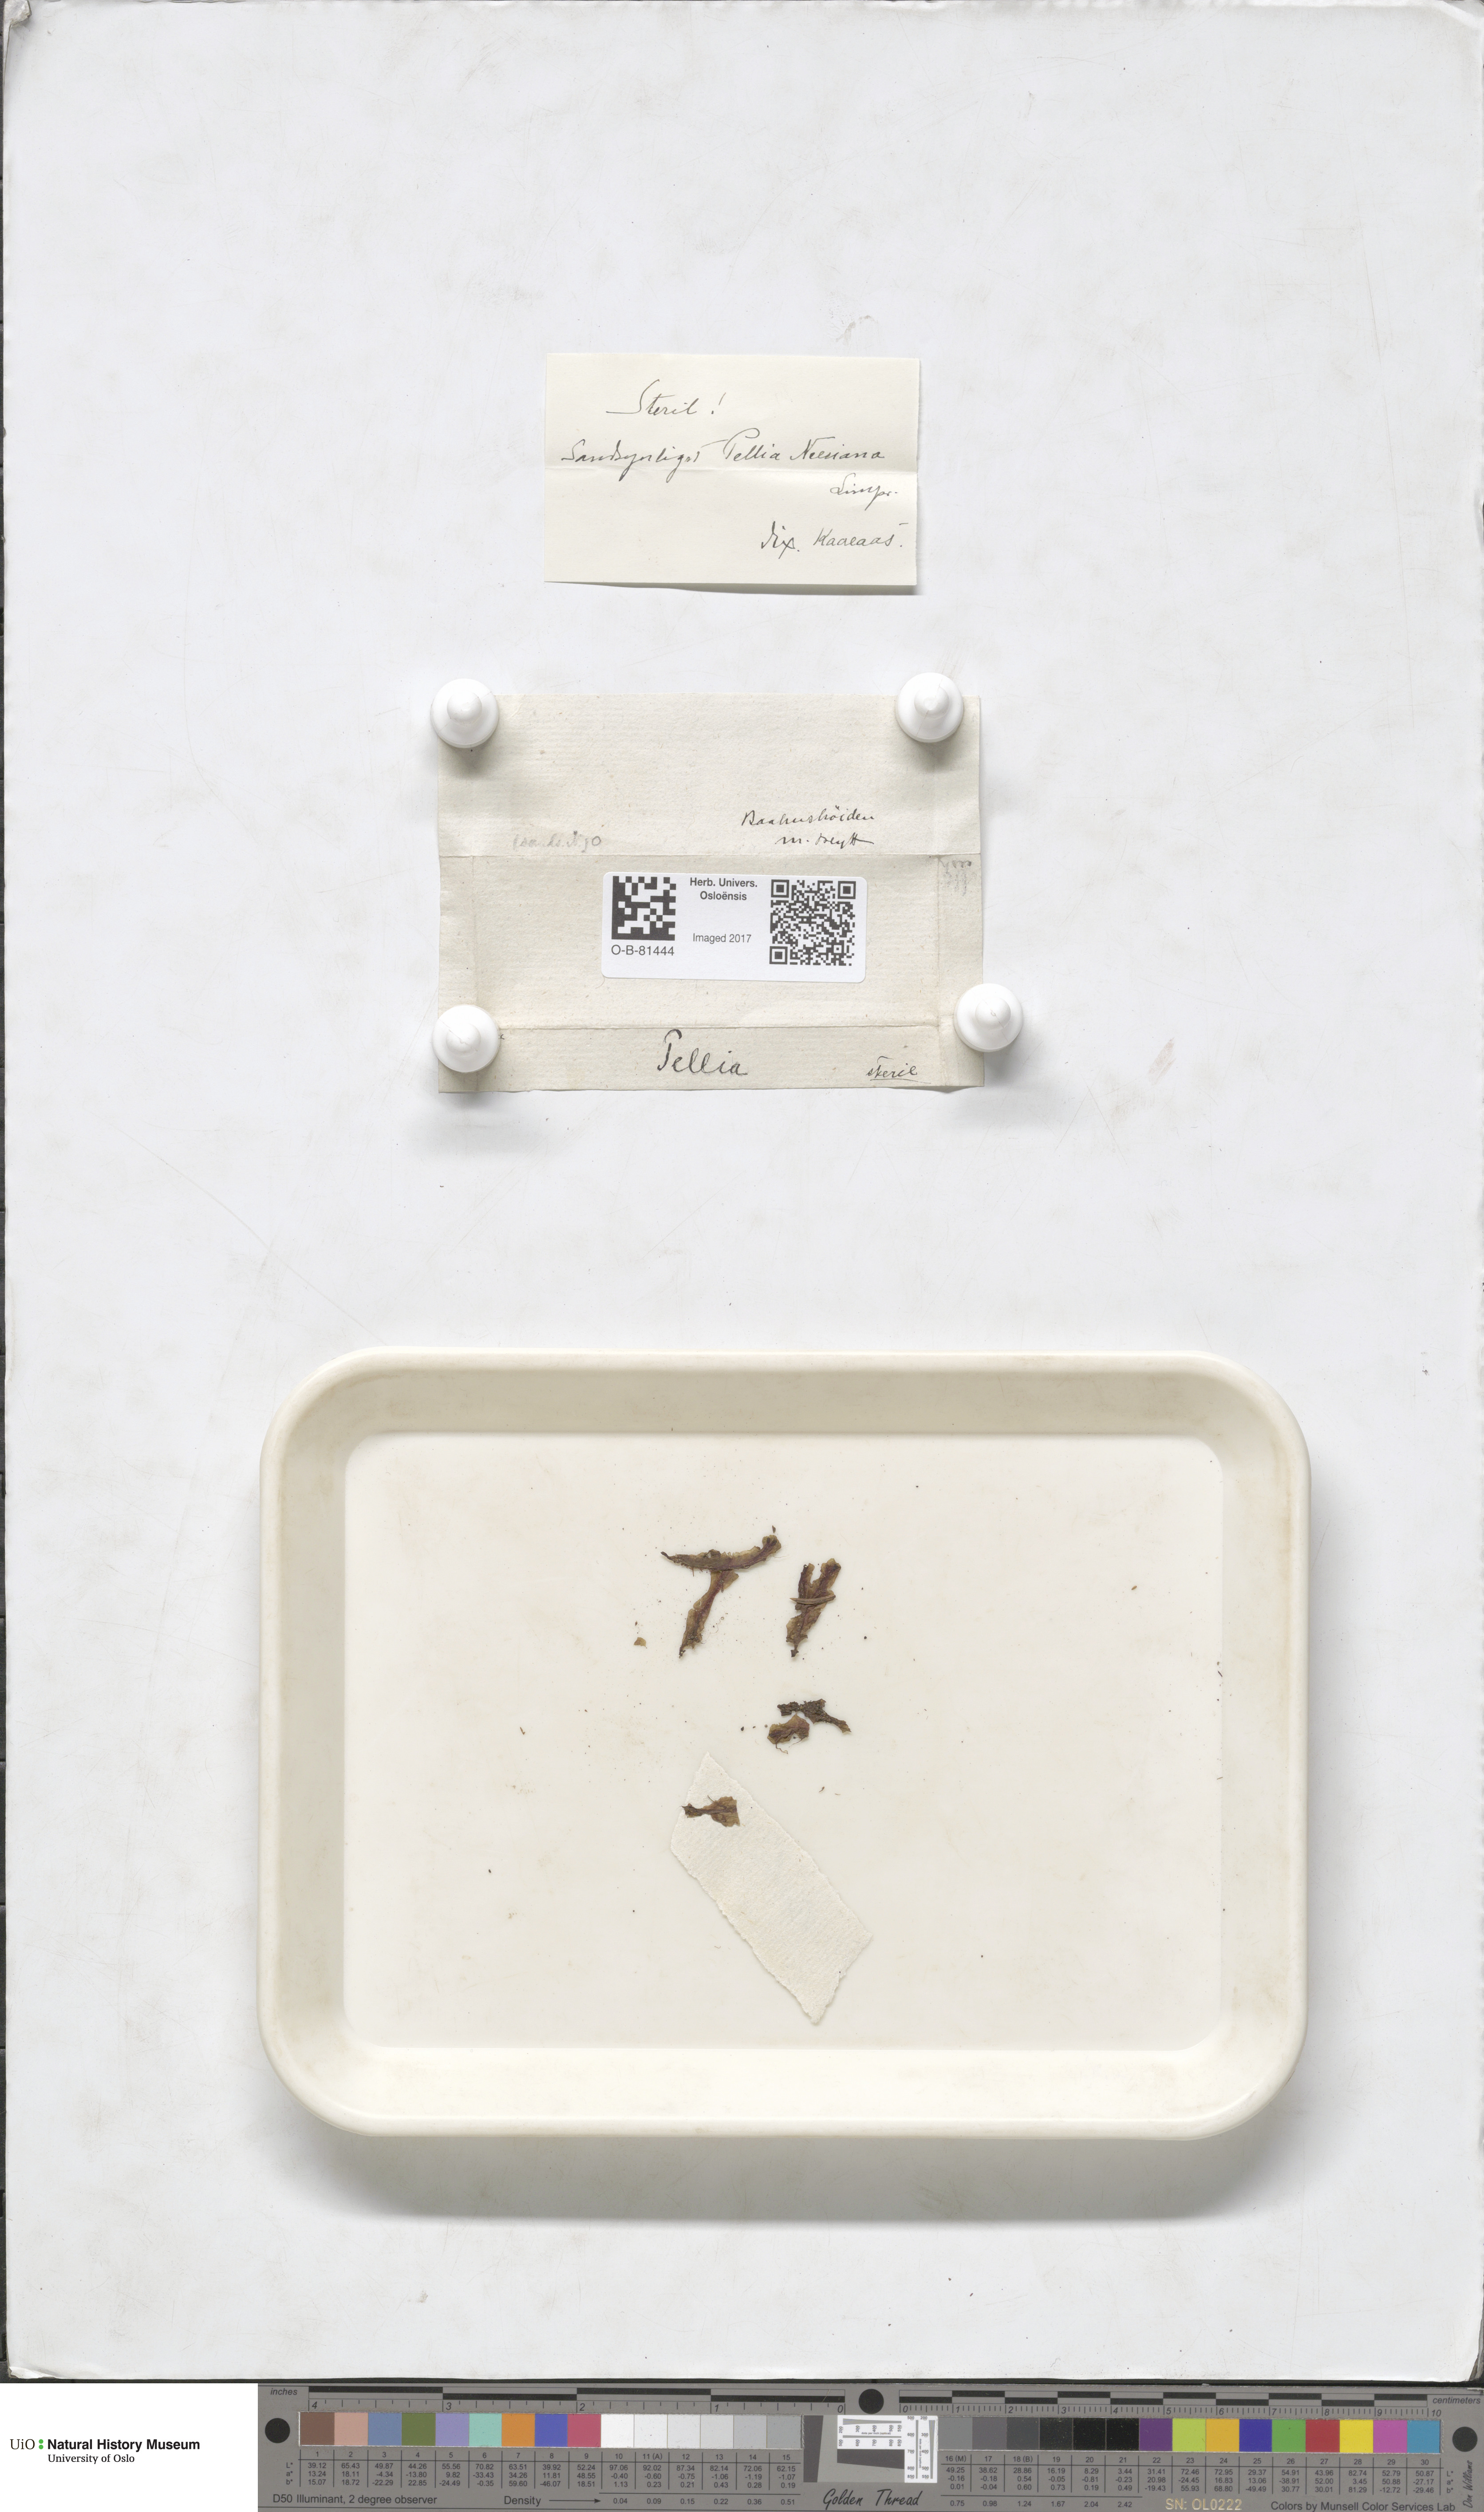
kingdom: Plantae
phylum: Marchantiophyta
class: Jungermanniopsida
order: Pelliales
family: Pelliaceae
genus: Pellia
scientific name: Pellia
